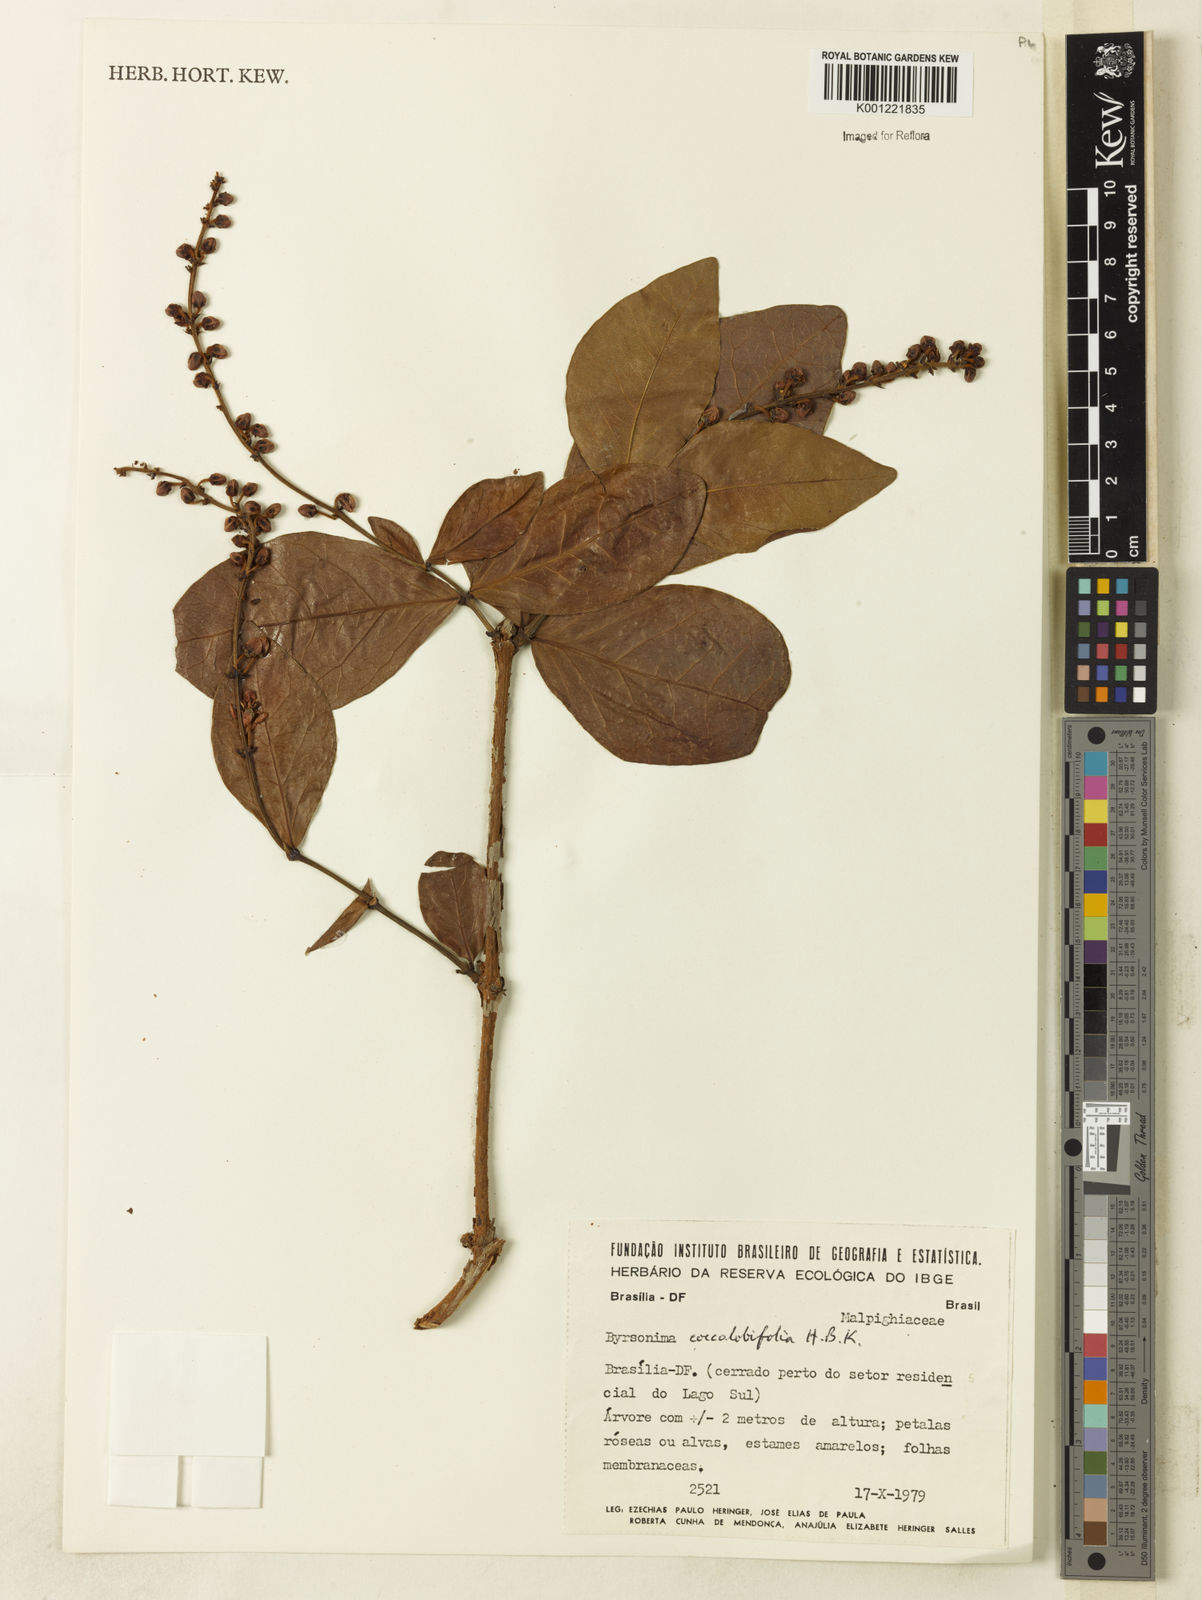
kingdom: Plantae
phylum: Tracheophyta
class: Magnoliopsida
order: Malpighiales
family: Malpighiaceae
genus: Byrsonima
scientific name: Byrsonima coccolobifolia
